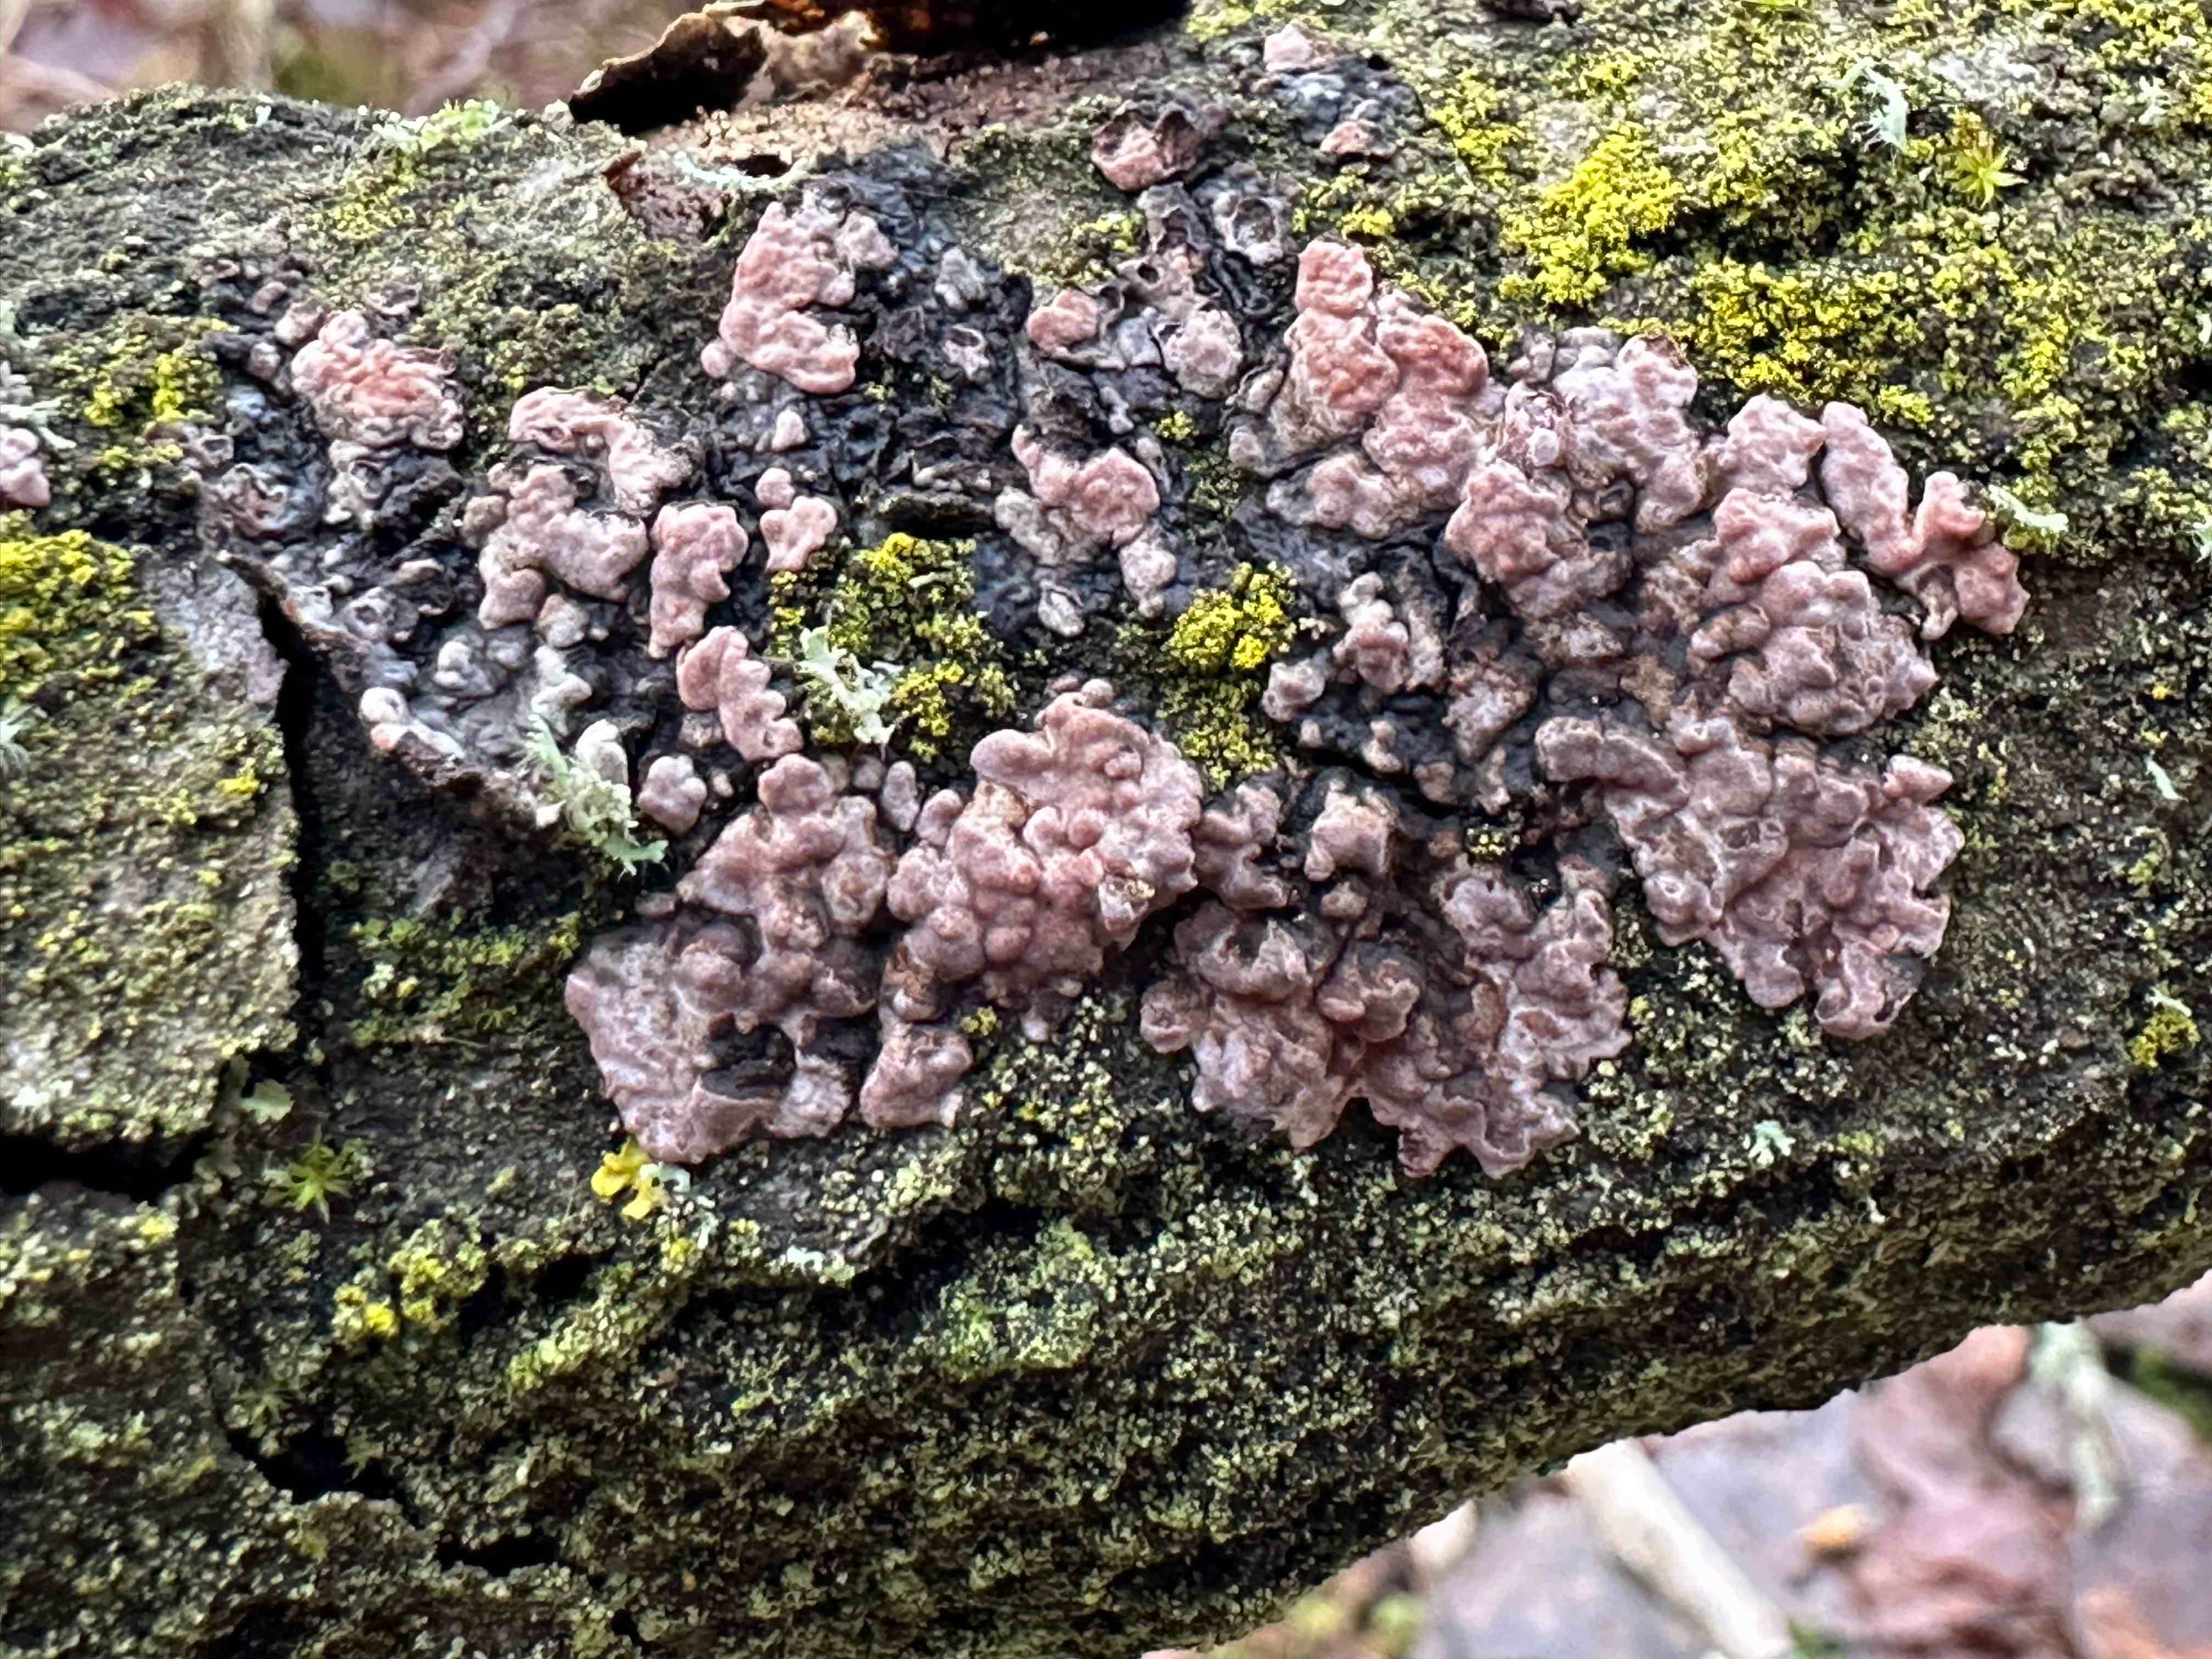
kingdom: Fungi
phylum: Basidiomycota
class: Agaricomycetes
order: Russulales
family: Peniophoraceae
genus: Peniophora
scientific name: Peniophora polygonia
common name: polygon-voksskind
